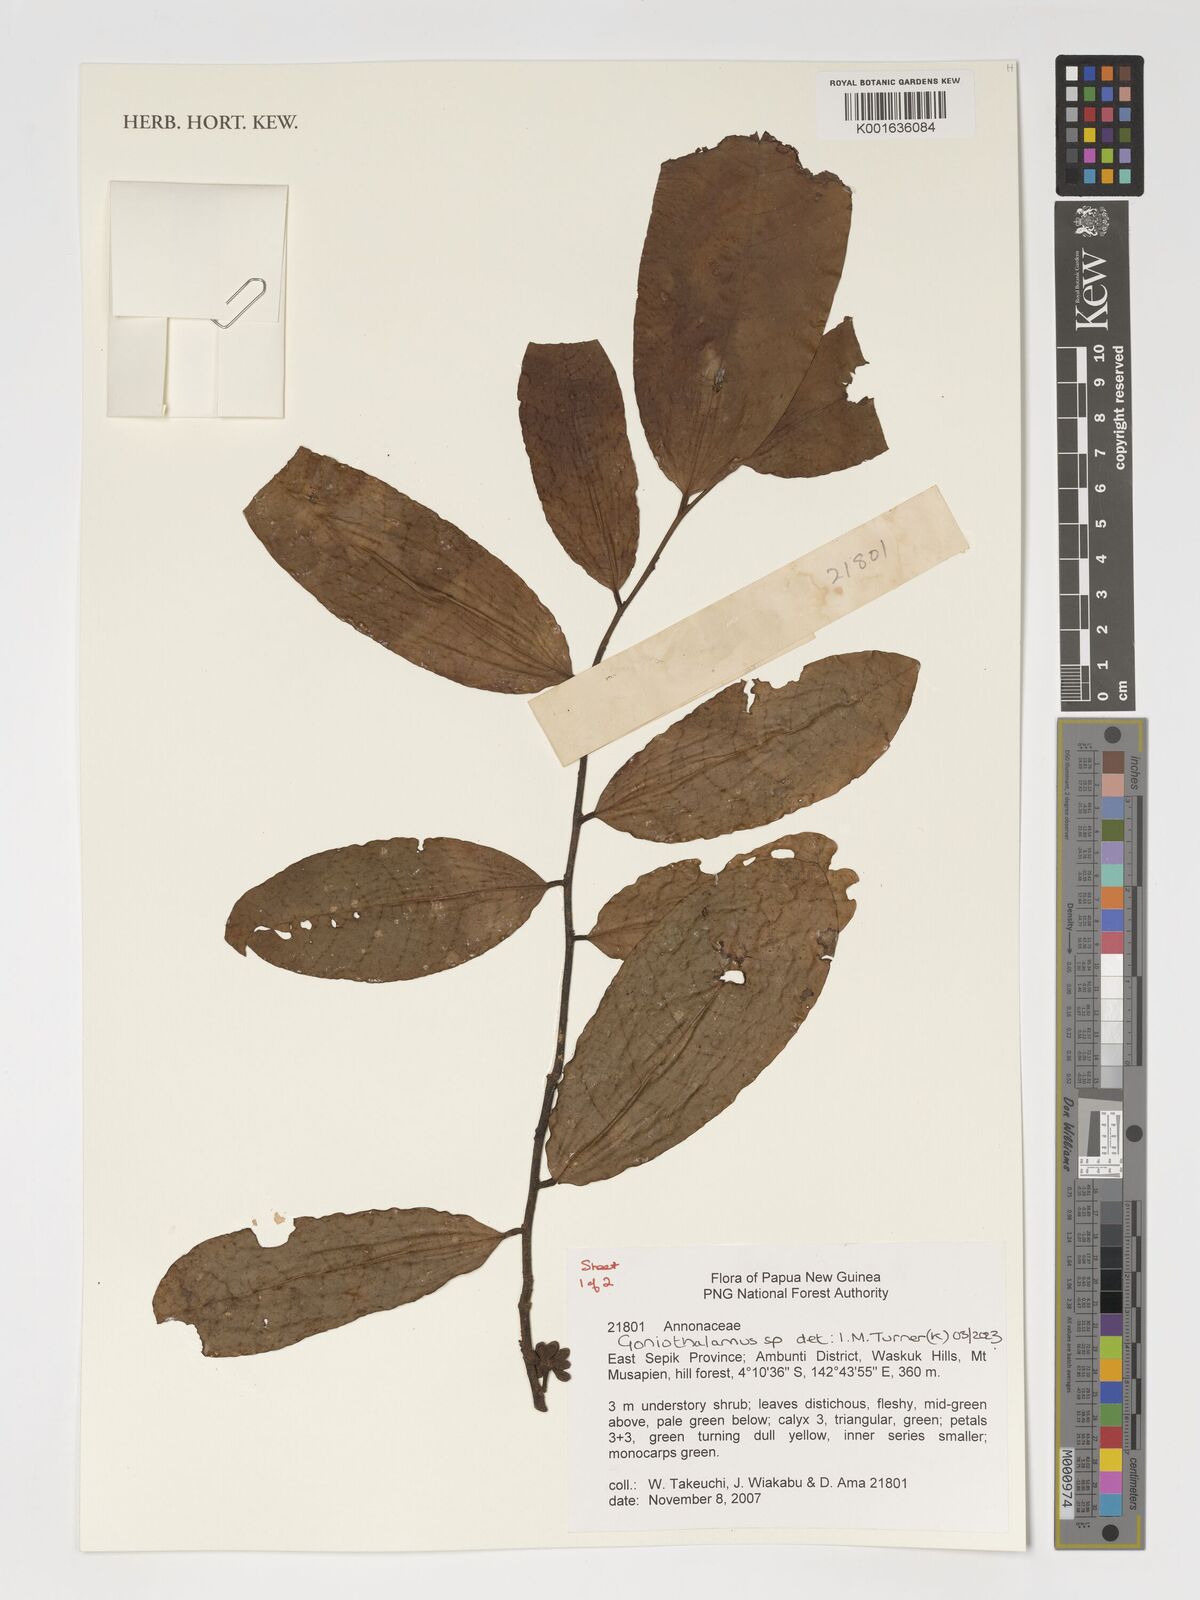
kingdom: Plantae
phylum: Tracheophyta
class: Magnoliopsida
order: Magnoliales
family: Annonaceae
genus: Goniothalamus
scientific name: Goniothalamus
